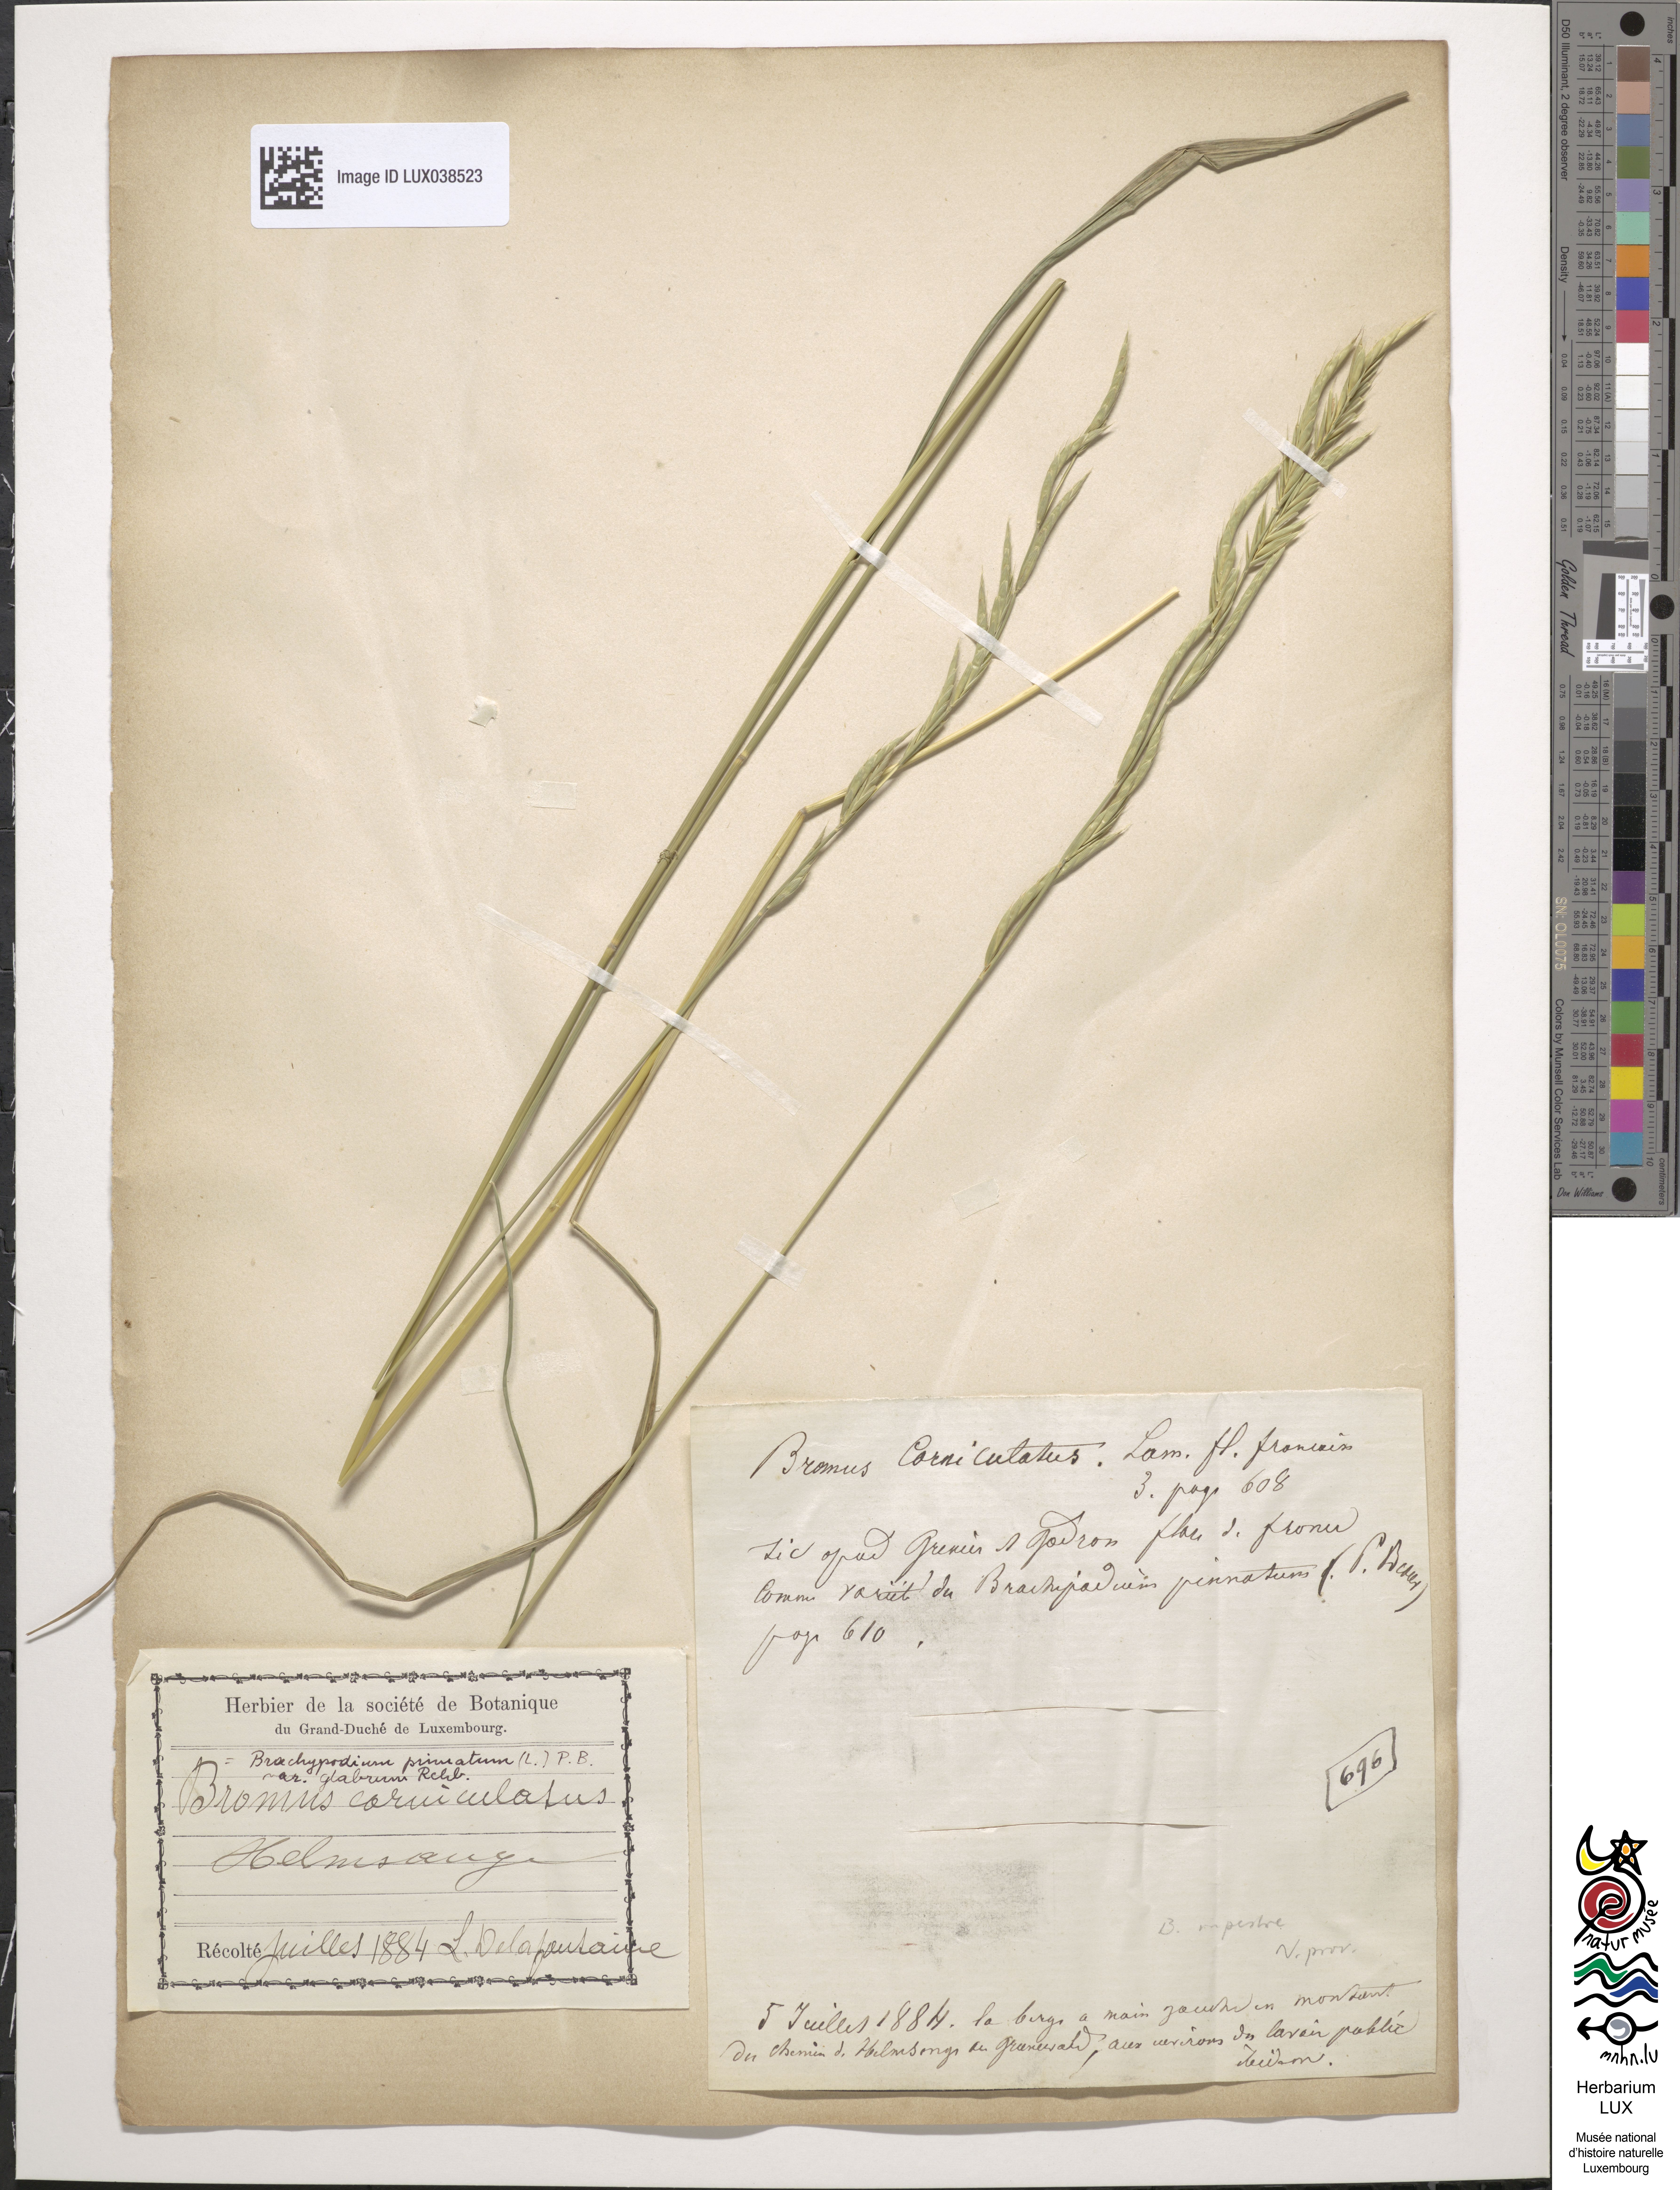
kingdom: Plantae
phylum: Tracheophyta
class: Liliopsida
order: Poales
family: Poaceae
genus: Brachypodium
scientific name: Brachypodium pinnatum
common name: Tor grass
